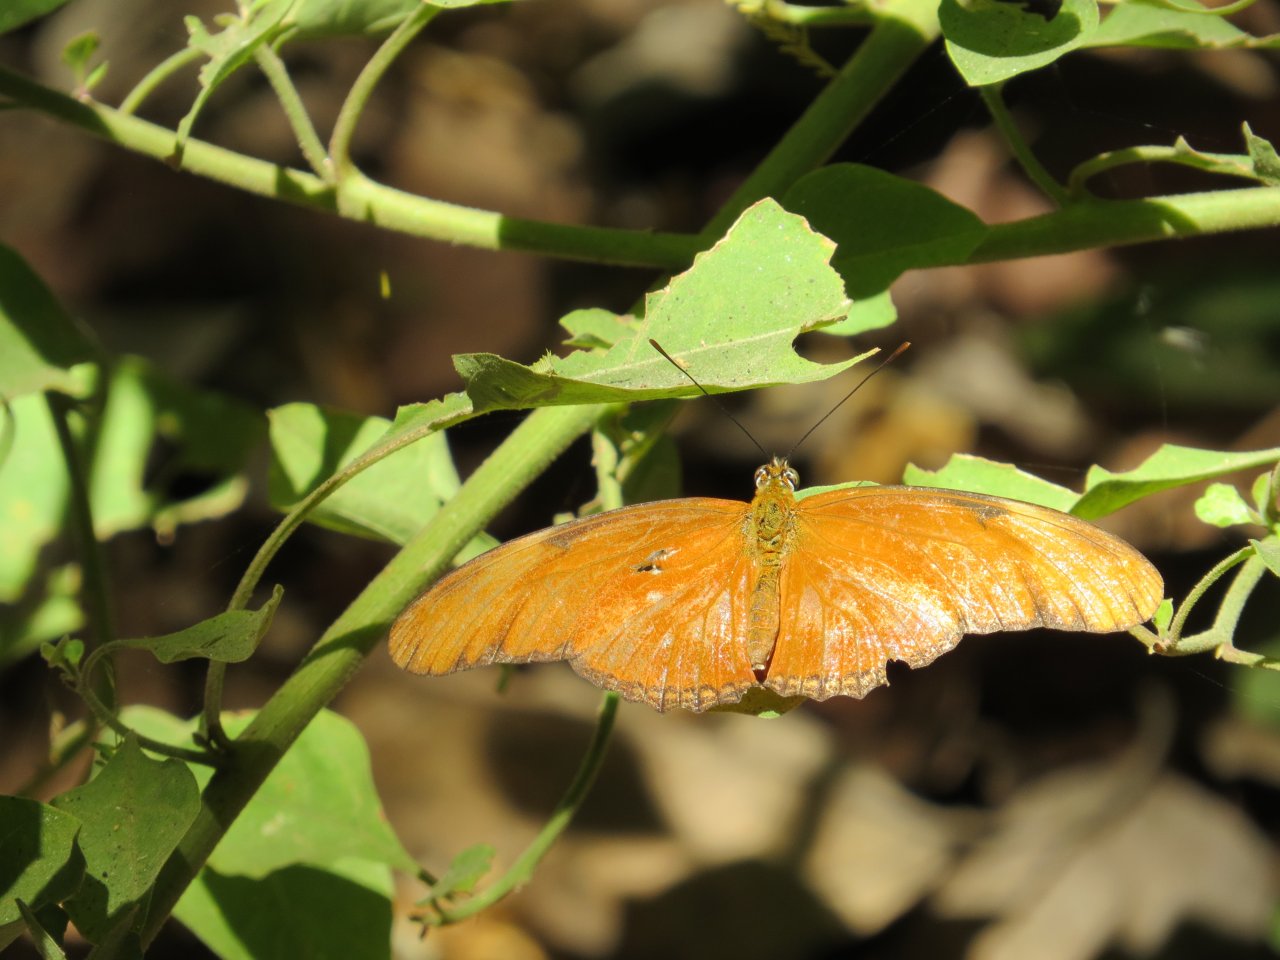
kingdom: Animalia
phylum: Arthropoda
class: Insecta
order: Lepidoptera
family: Nymphalidae
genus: Dryas
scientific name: Dryas iulia
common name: Julia
